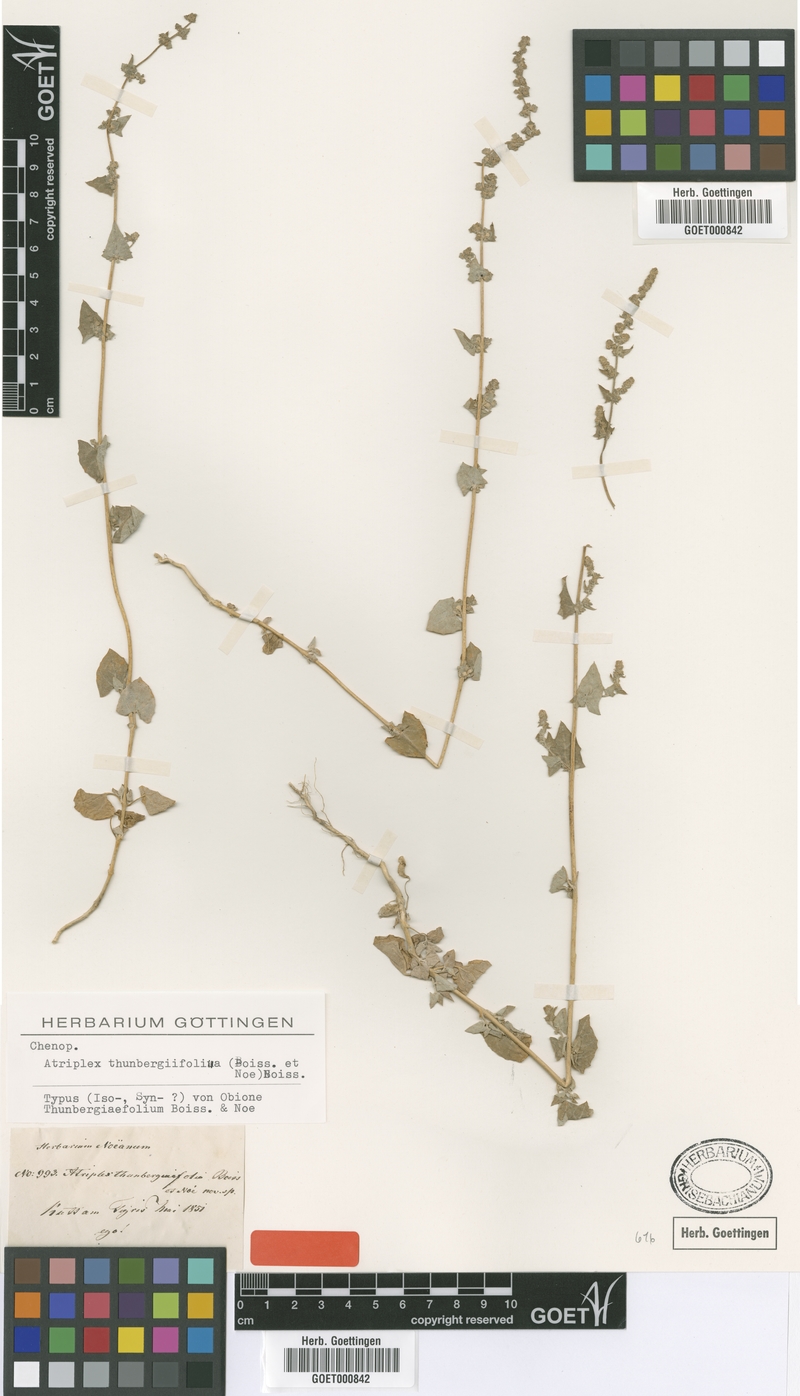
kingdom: Plantae
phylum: Tracheophyta
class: Magnoliopsida
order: Caryophyllales
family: Amaranthaceae
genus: Atriplex
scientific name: Atriplex belangeri
